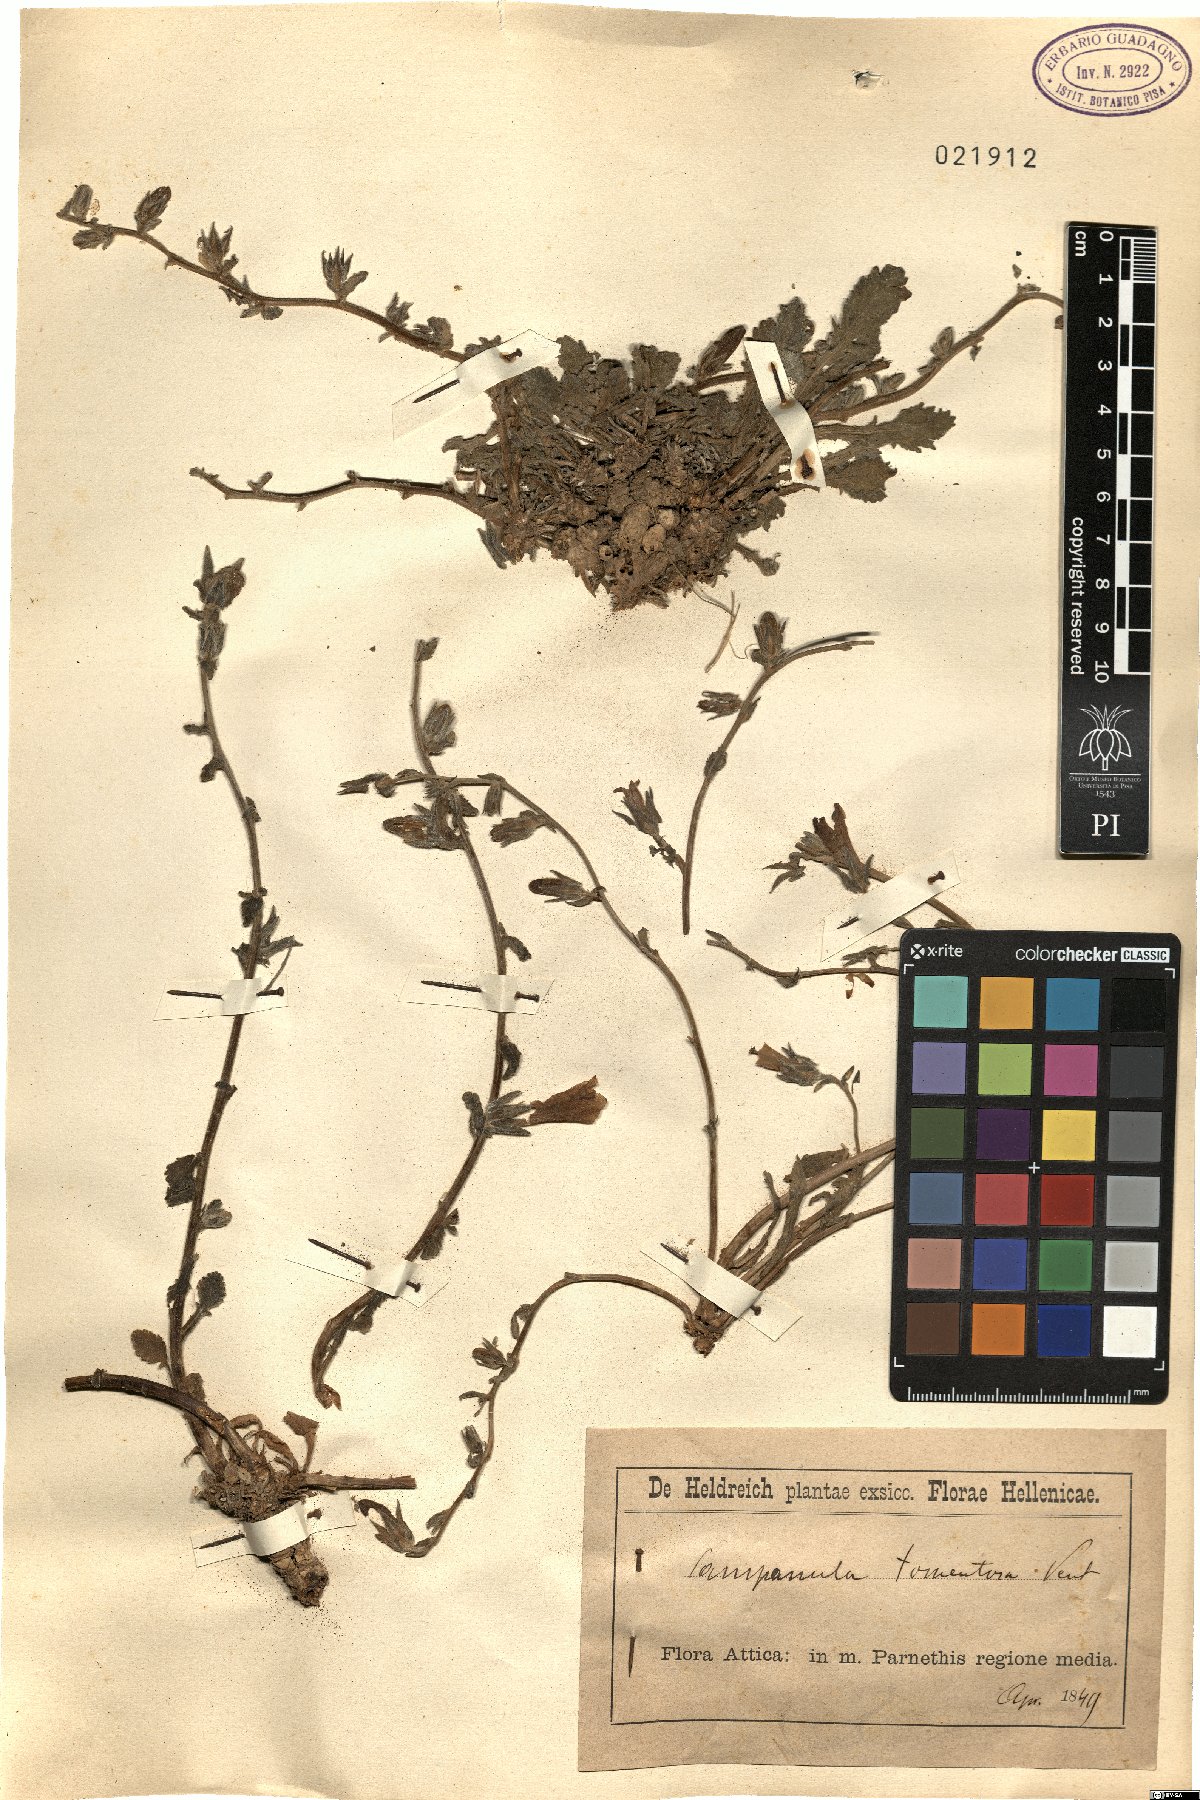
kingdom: Plantae
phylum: Tracheophyta
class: Magnoliopsida
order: Asterales
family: Campanulaceae
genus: Campanula
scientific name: Campanula tomentosa
